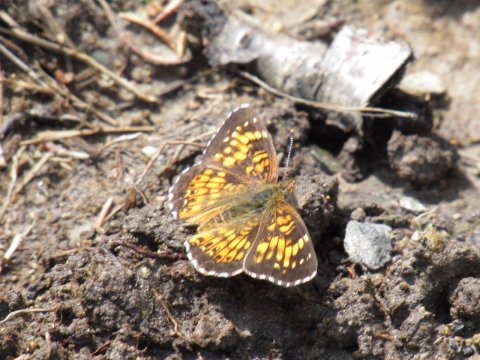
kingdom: Animalia
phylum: Arthropoda
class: Insecta
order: Lepidoptera
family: Nymphalidae
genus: Chlosyne
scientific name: Chlosyne harrisii
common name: Harris's Checkerspot
